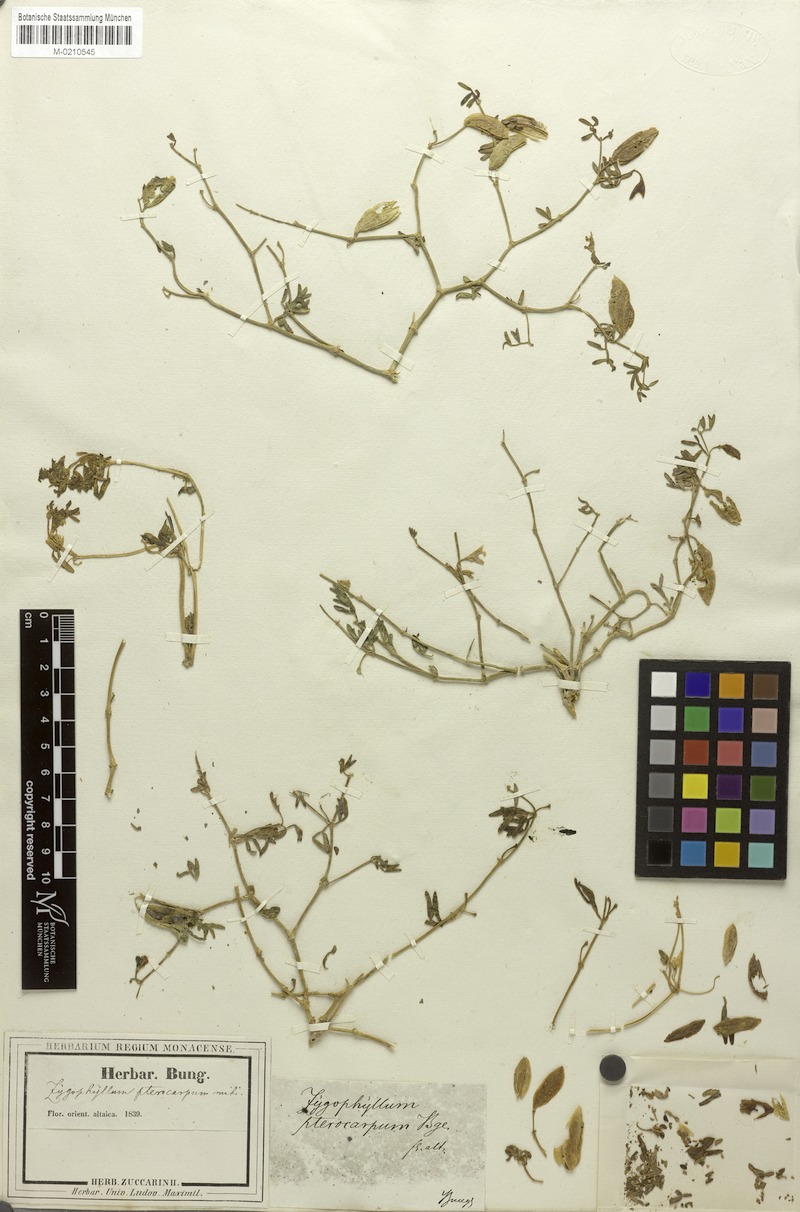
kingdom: Plantae
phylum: Tracheophyta
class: Magnoliopsida
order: Zygophyllales
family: Zygophyllaceae
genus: Zygophyllum
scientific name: Zygophyllum pterocarpum
